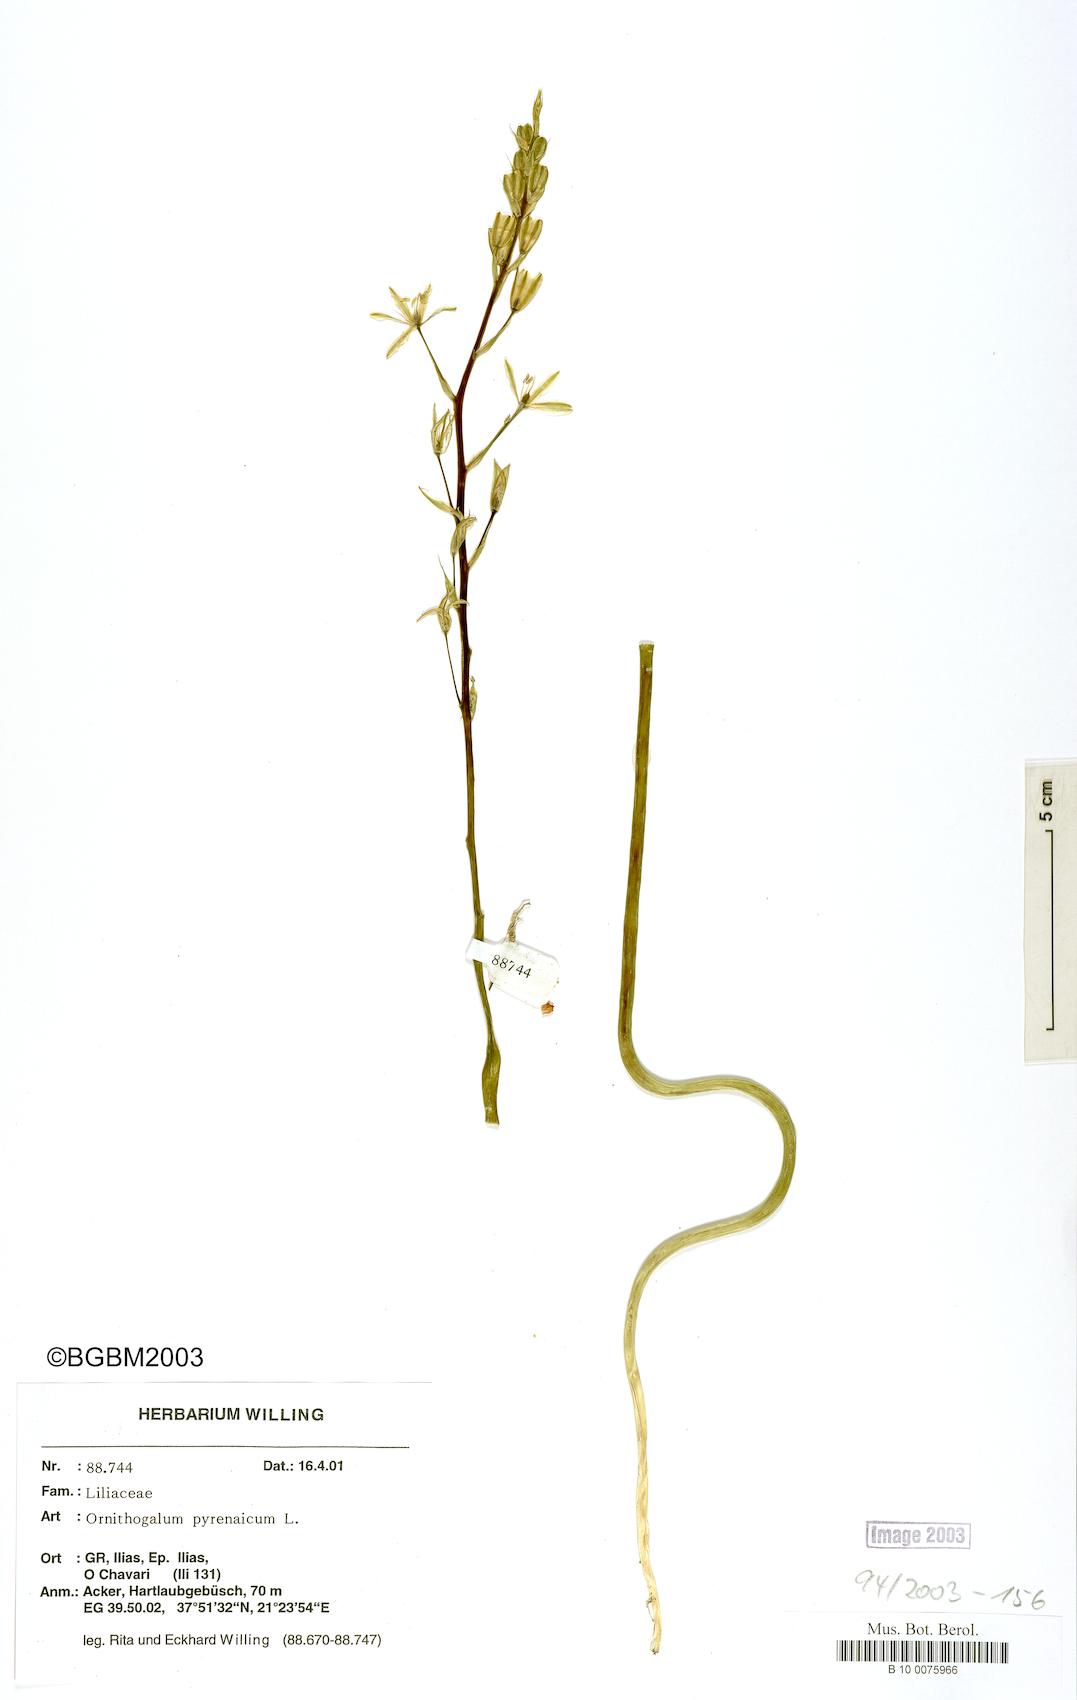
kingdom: Plantae
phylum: Tracheophyta
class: Liliopsida
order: Asparagales
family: Asparagaceae
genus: Ornithogalum
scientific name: Ornithogalum pyrenaicum
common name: Spiked star-of-bethlehem
